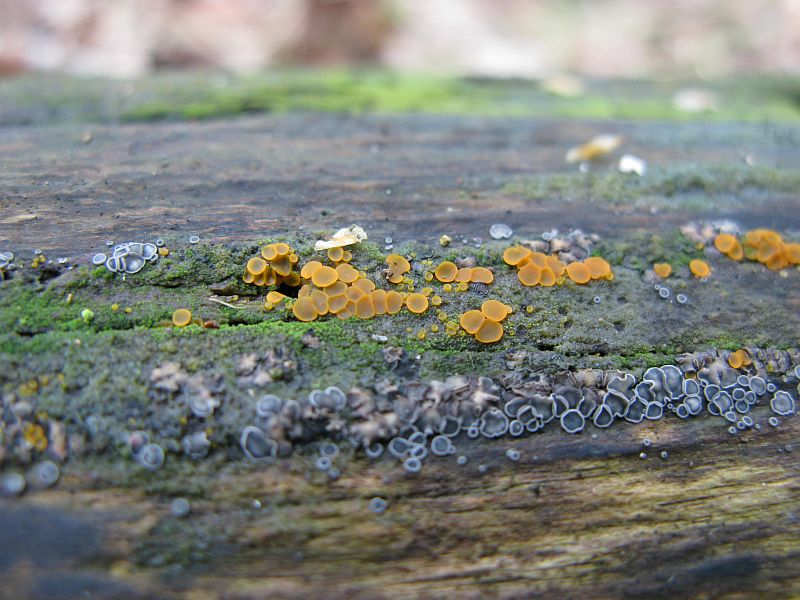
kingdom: Fungi
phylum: Ascomycota
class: Orbiliomycetes
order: Orbiliales
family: Orbiliaceae
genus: Orbilia
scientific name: Orbilia xanthostigma
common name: krumsporet voksskive
